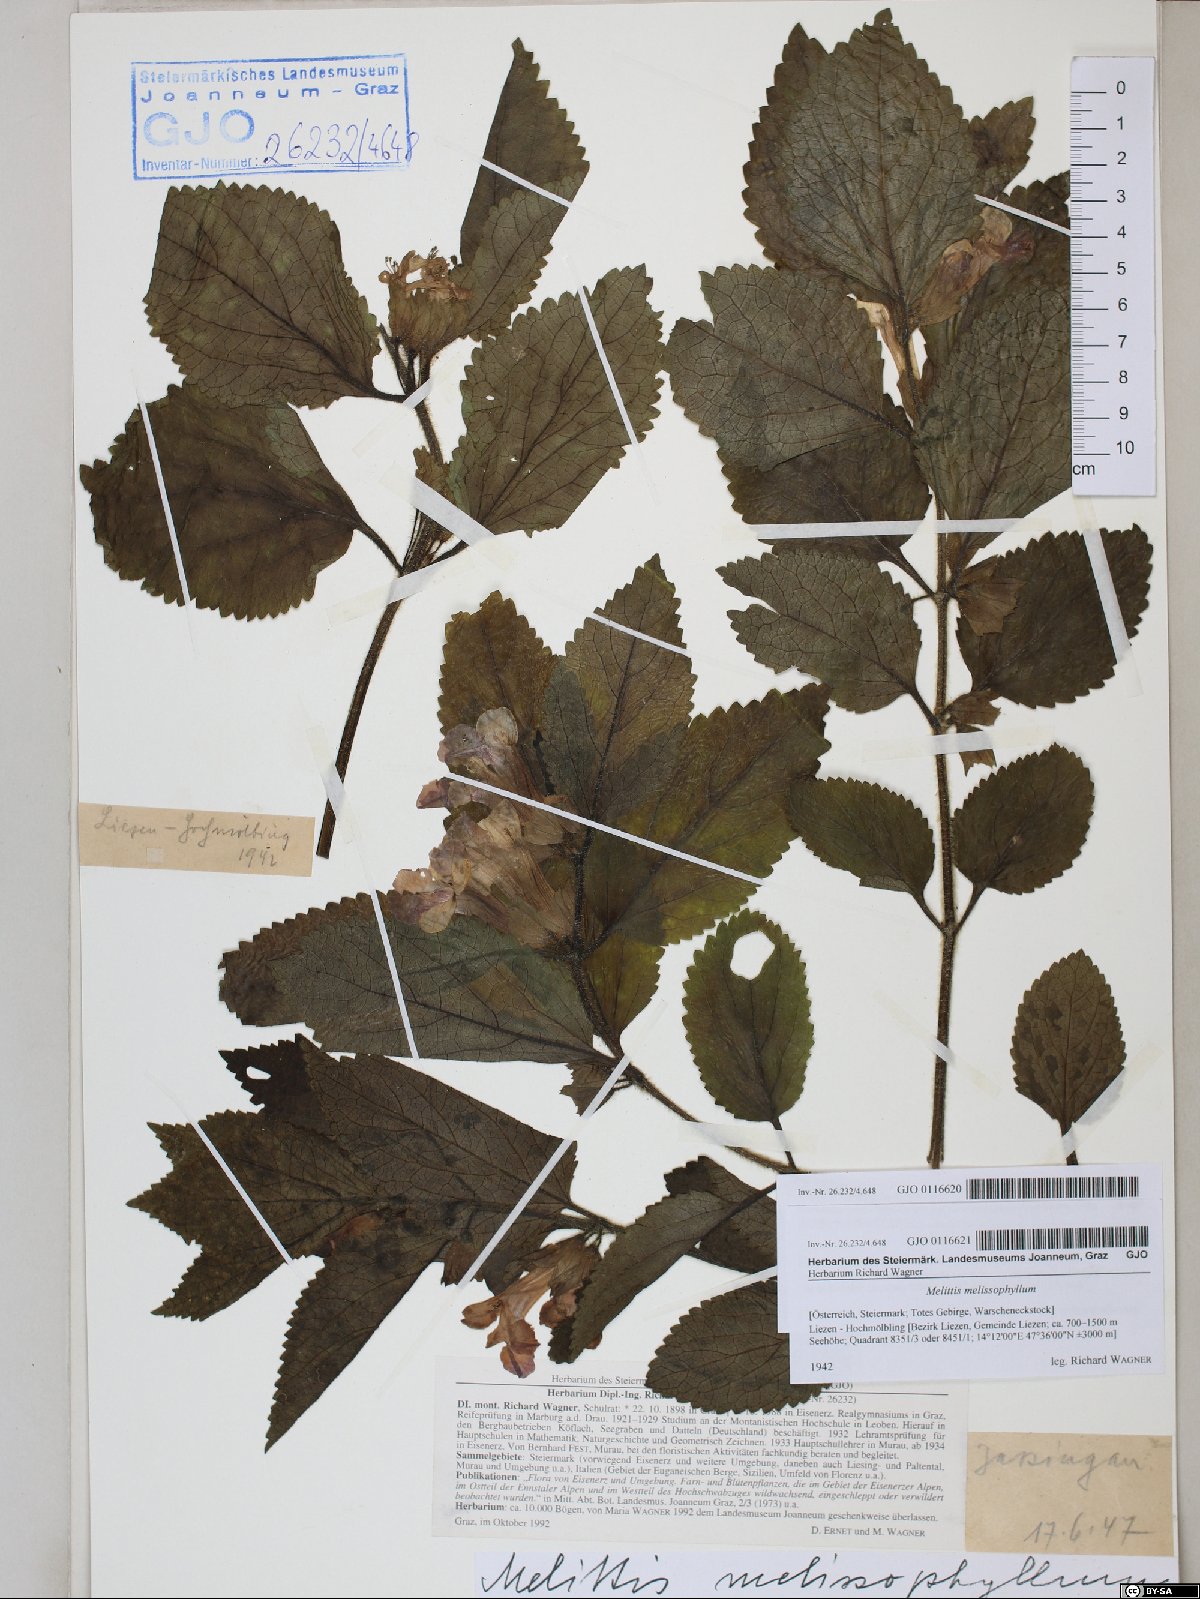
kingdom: Plantae
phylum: Tracheophyta
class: Magnoliopsida
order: Lamiales
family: Lamiaceae
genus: Melittis
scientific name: Melittis melissophyllum
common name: Bastard balm
